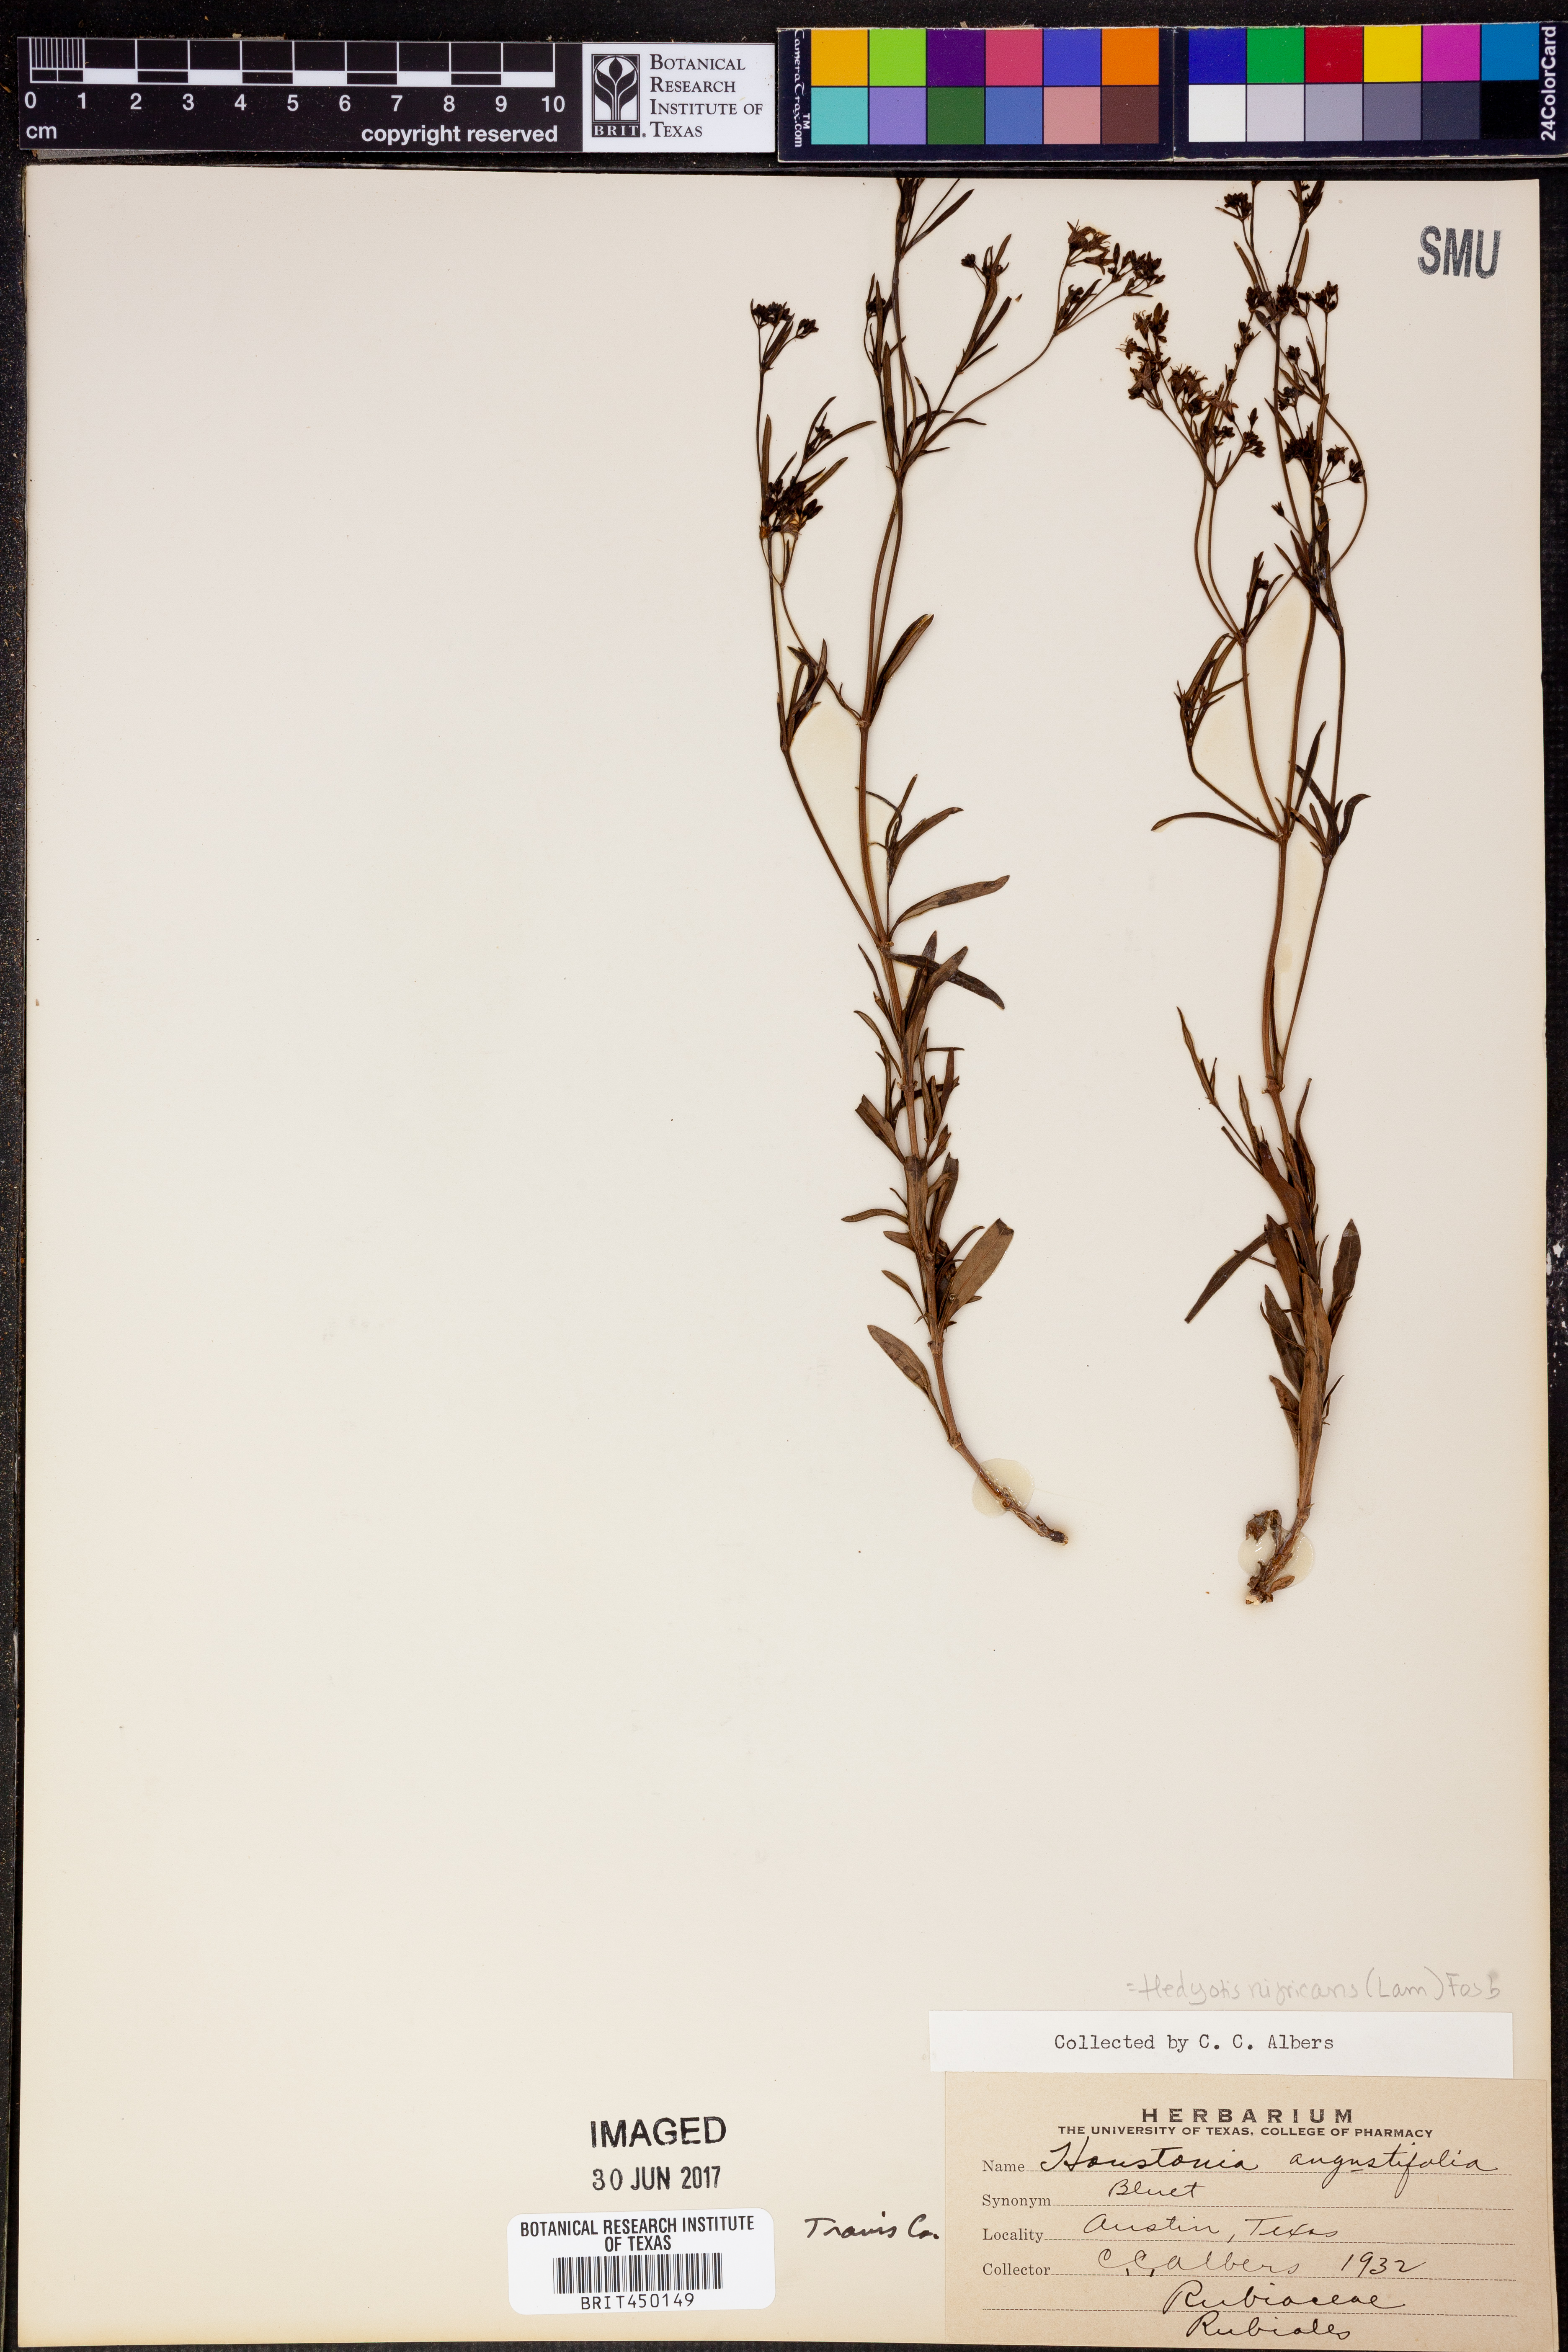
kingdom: Plantae
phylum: Tracheophyta
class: Magnoliopsida
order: Gentianales
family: Rubiaceae
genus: Stenaria
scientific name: Stenaria nigricans
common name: Diamondflowers
